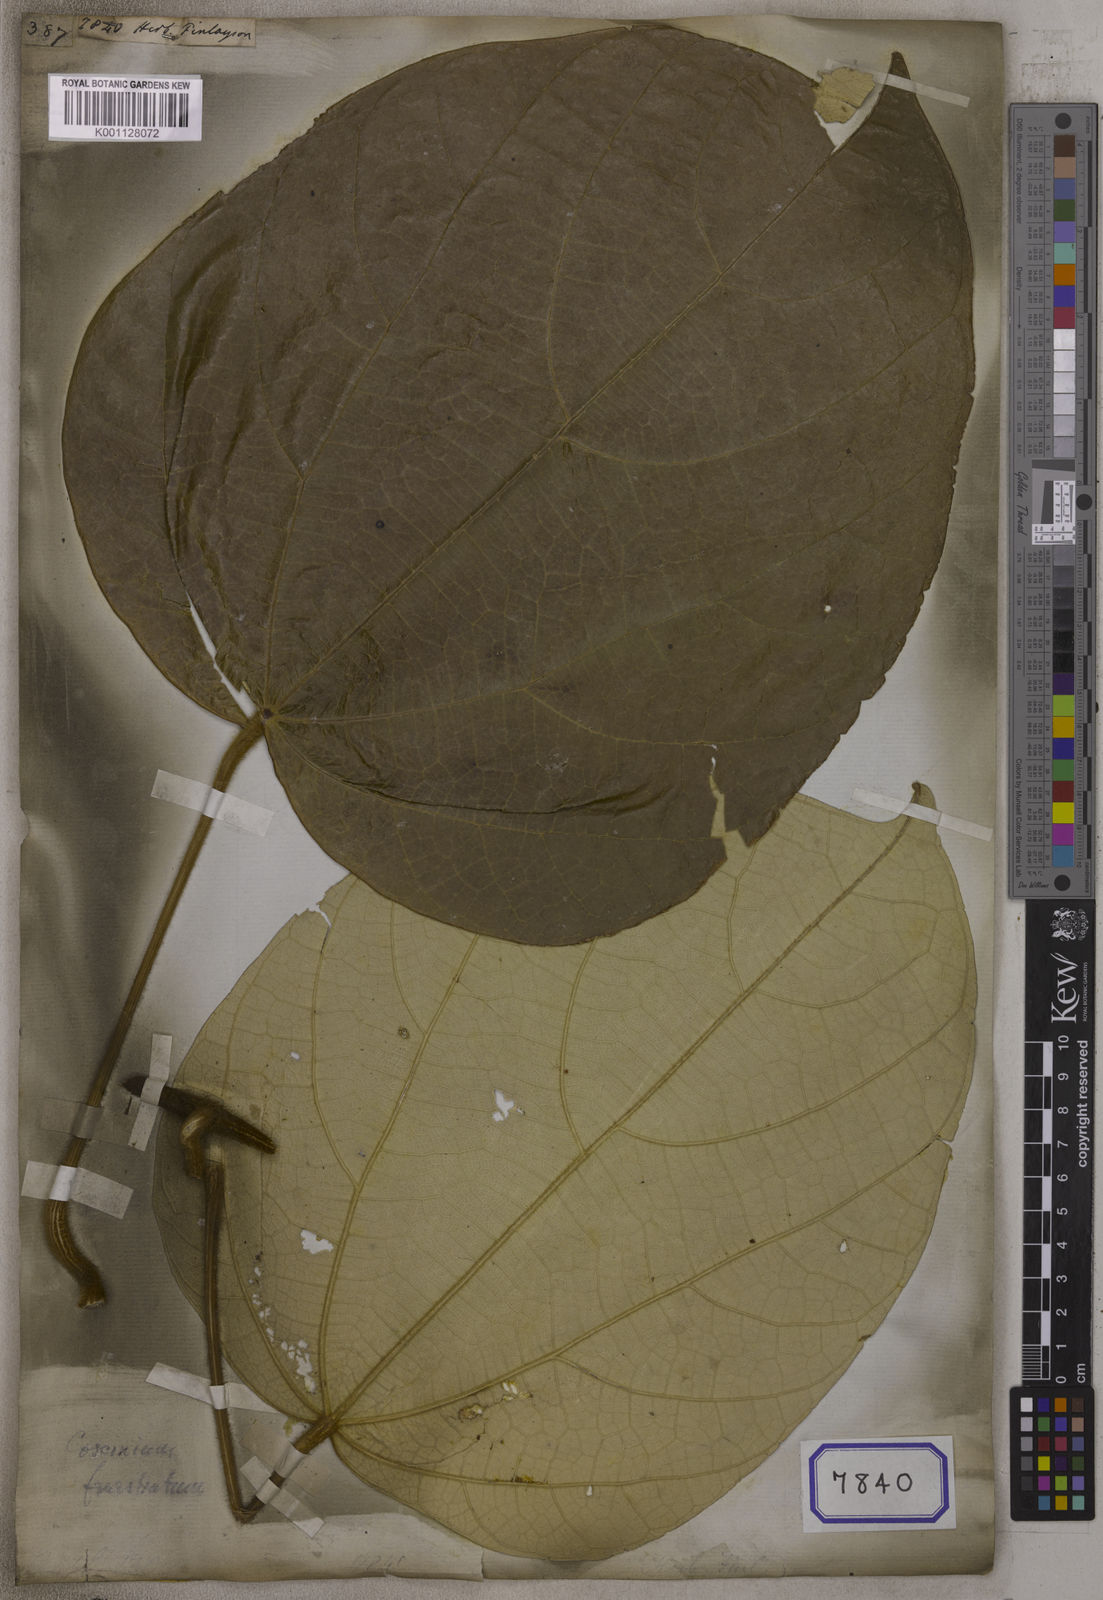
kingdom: Plantae
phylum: Tracheophyta
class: Magnoliopsida
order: Malpighiales
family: Euphorbiaceae
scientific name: Euphorbiaceae
